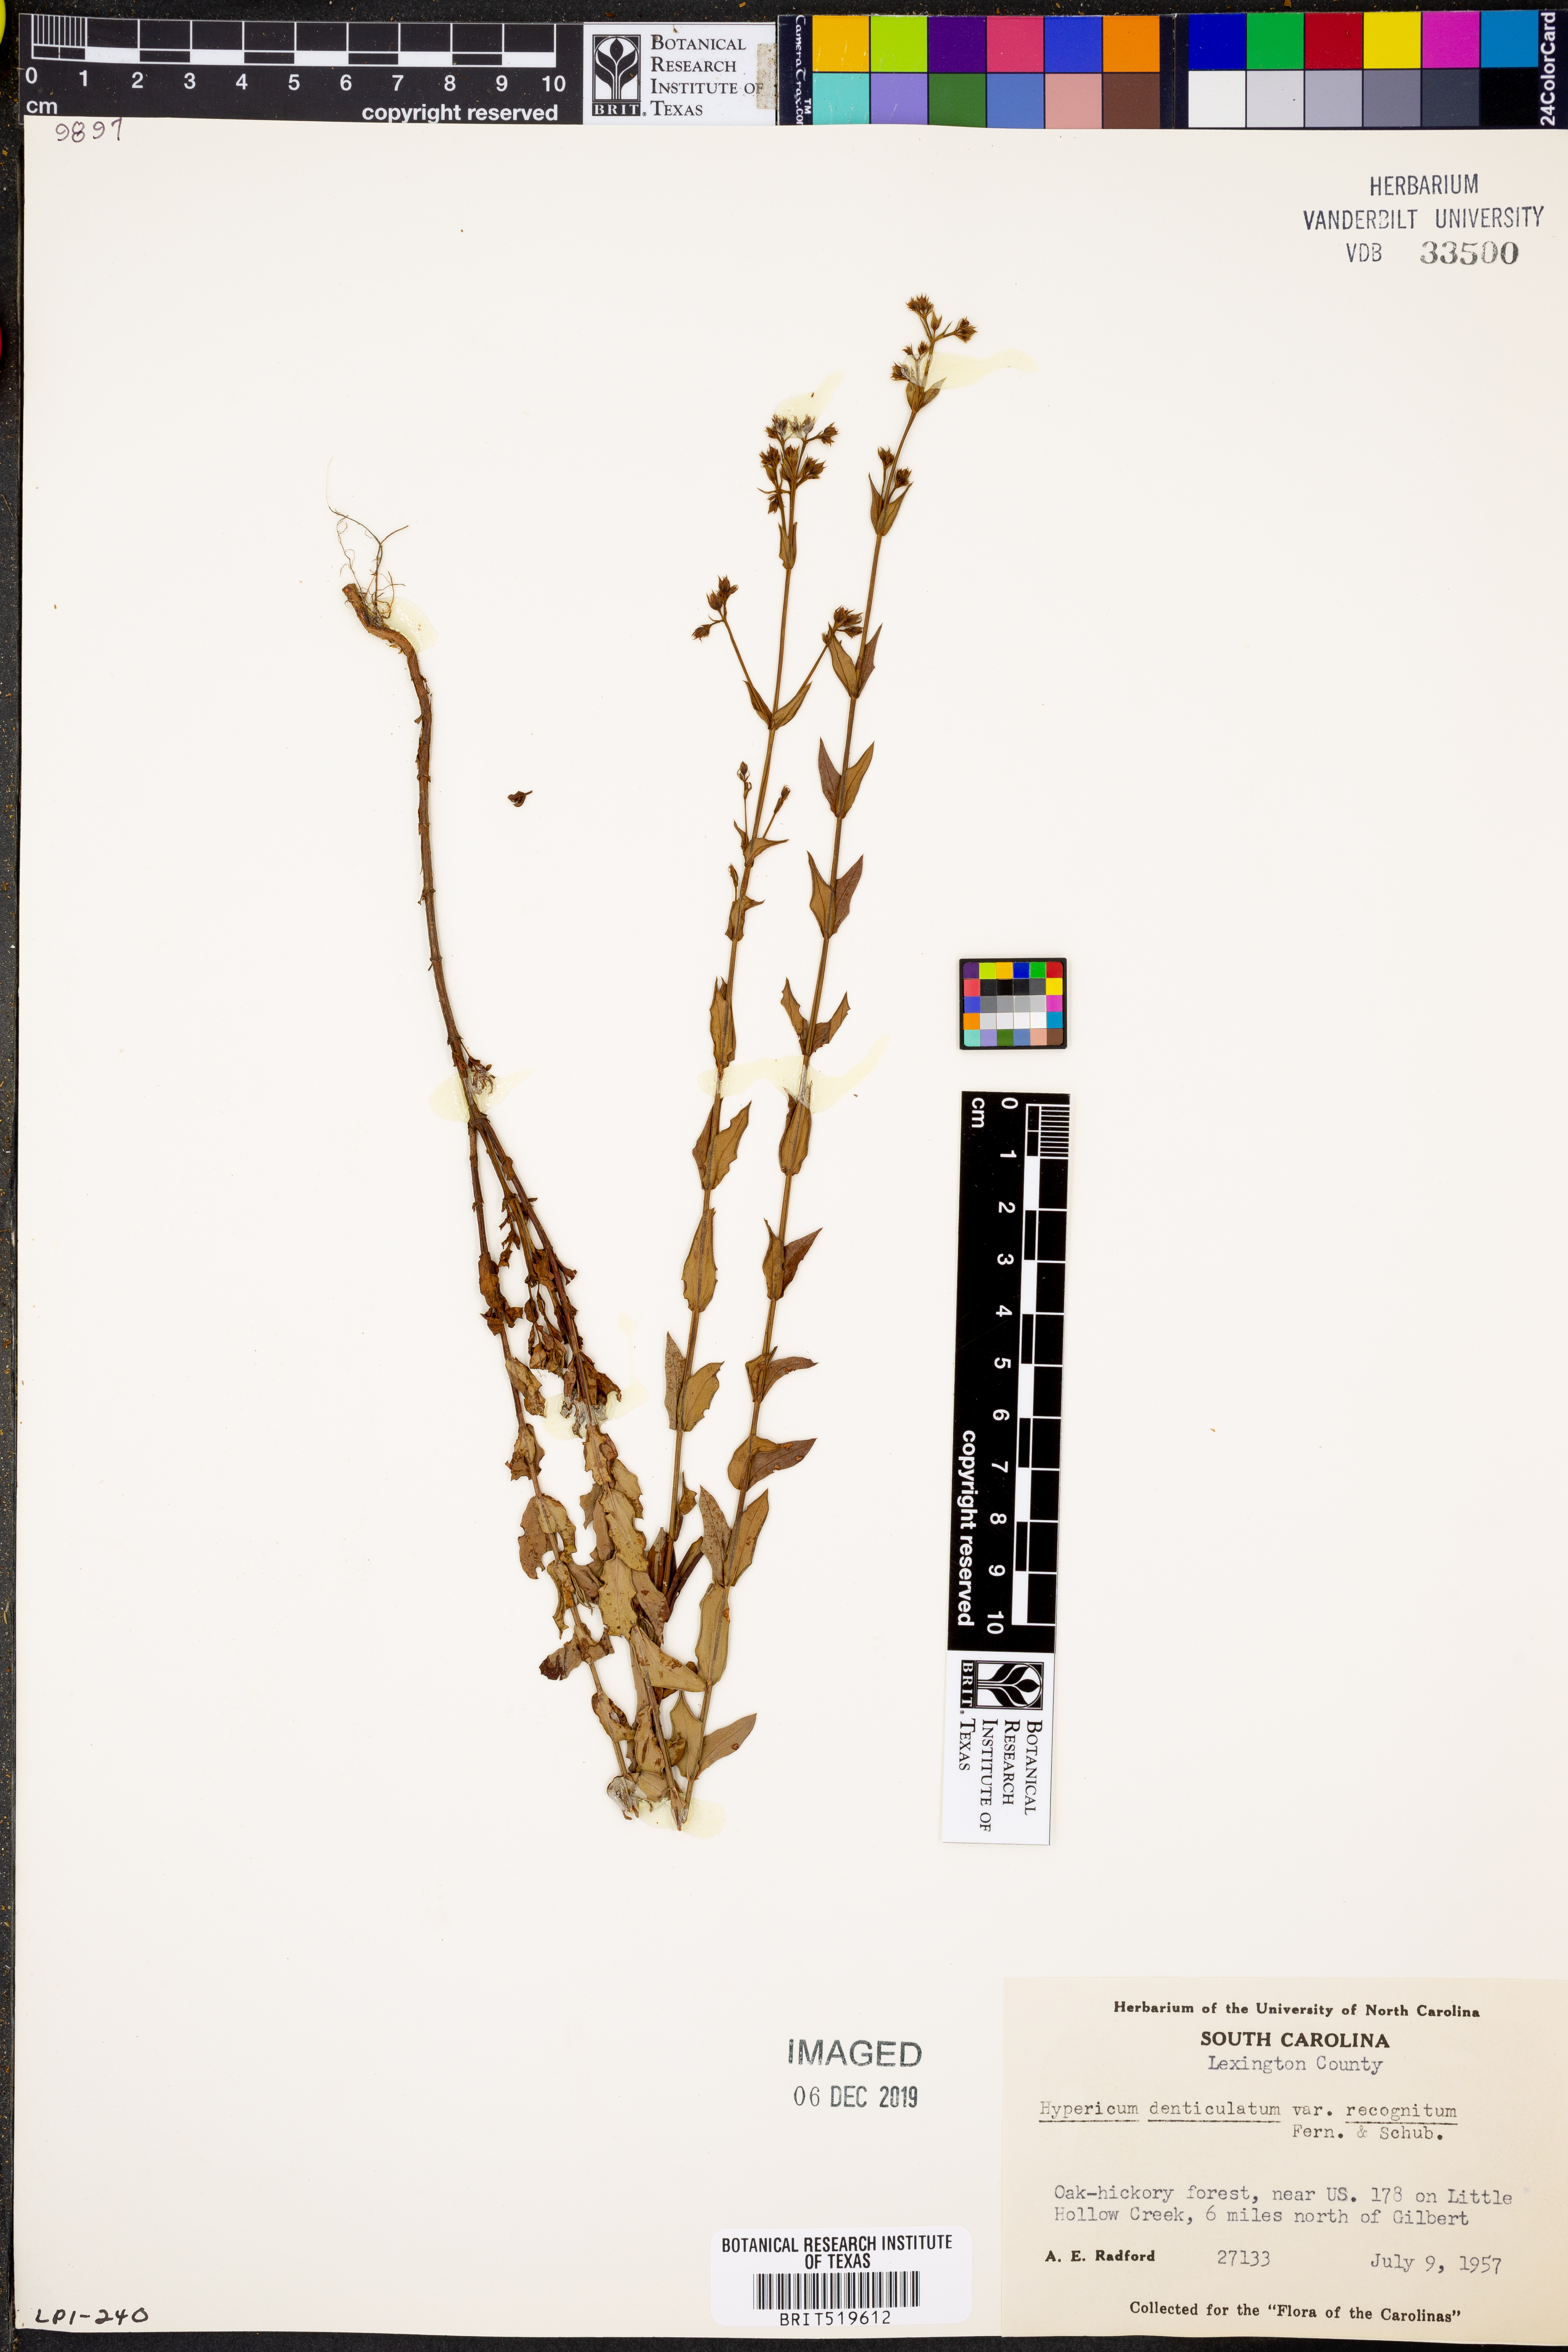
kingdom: Plantae
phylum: Tracheophyta
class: Magnoliopsida
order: Malpighiales
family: Hypericaceae
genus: Hypericum
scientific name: Hypericum virgatum
